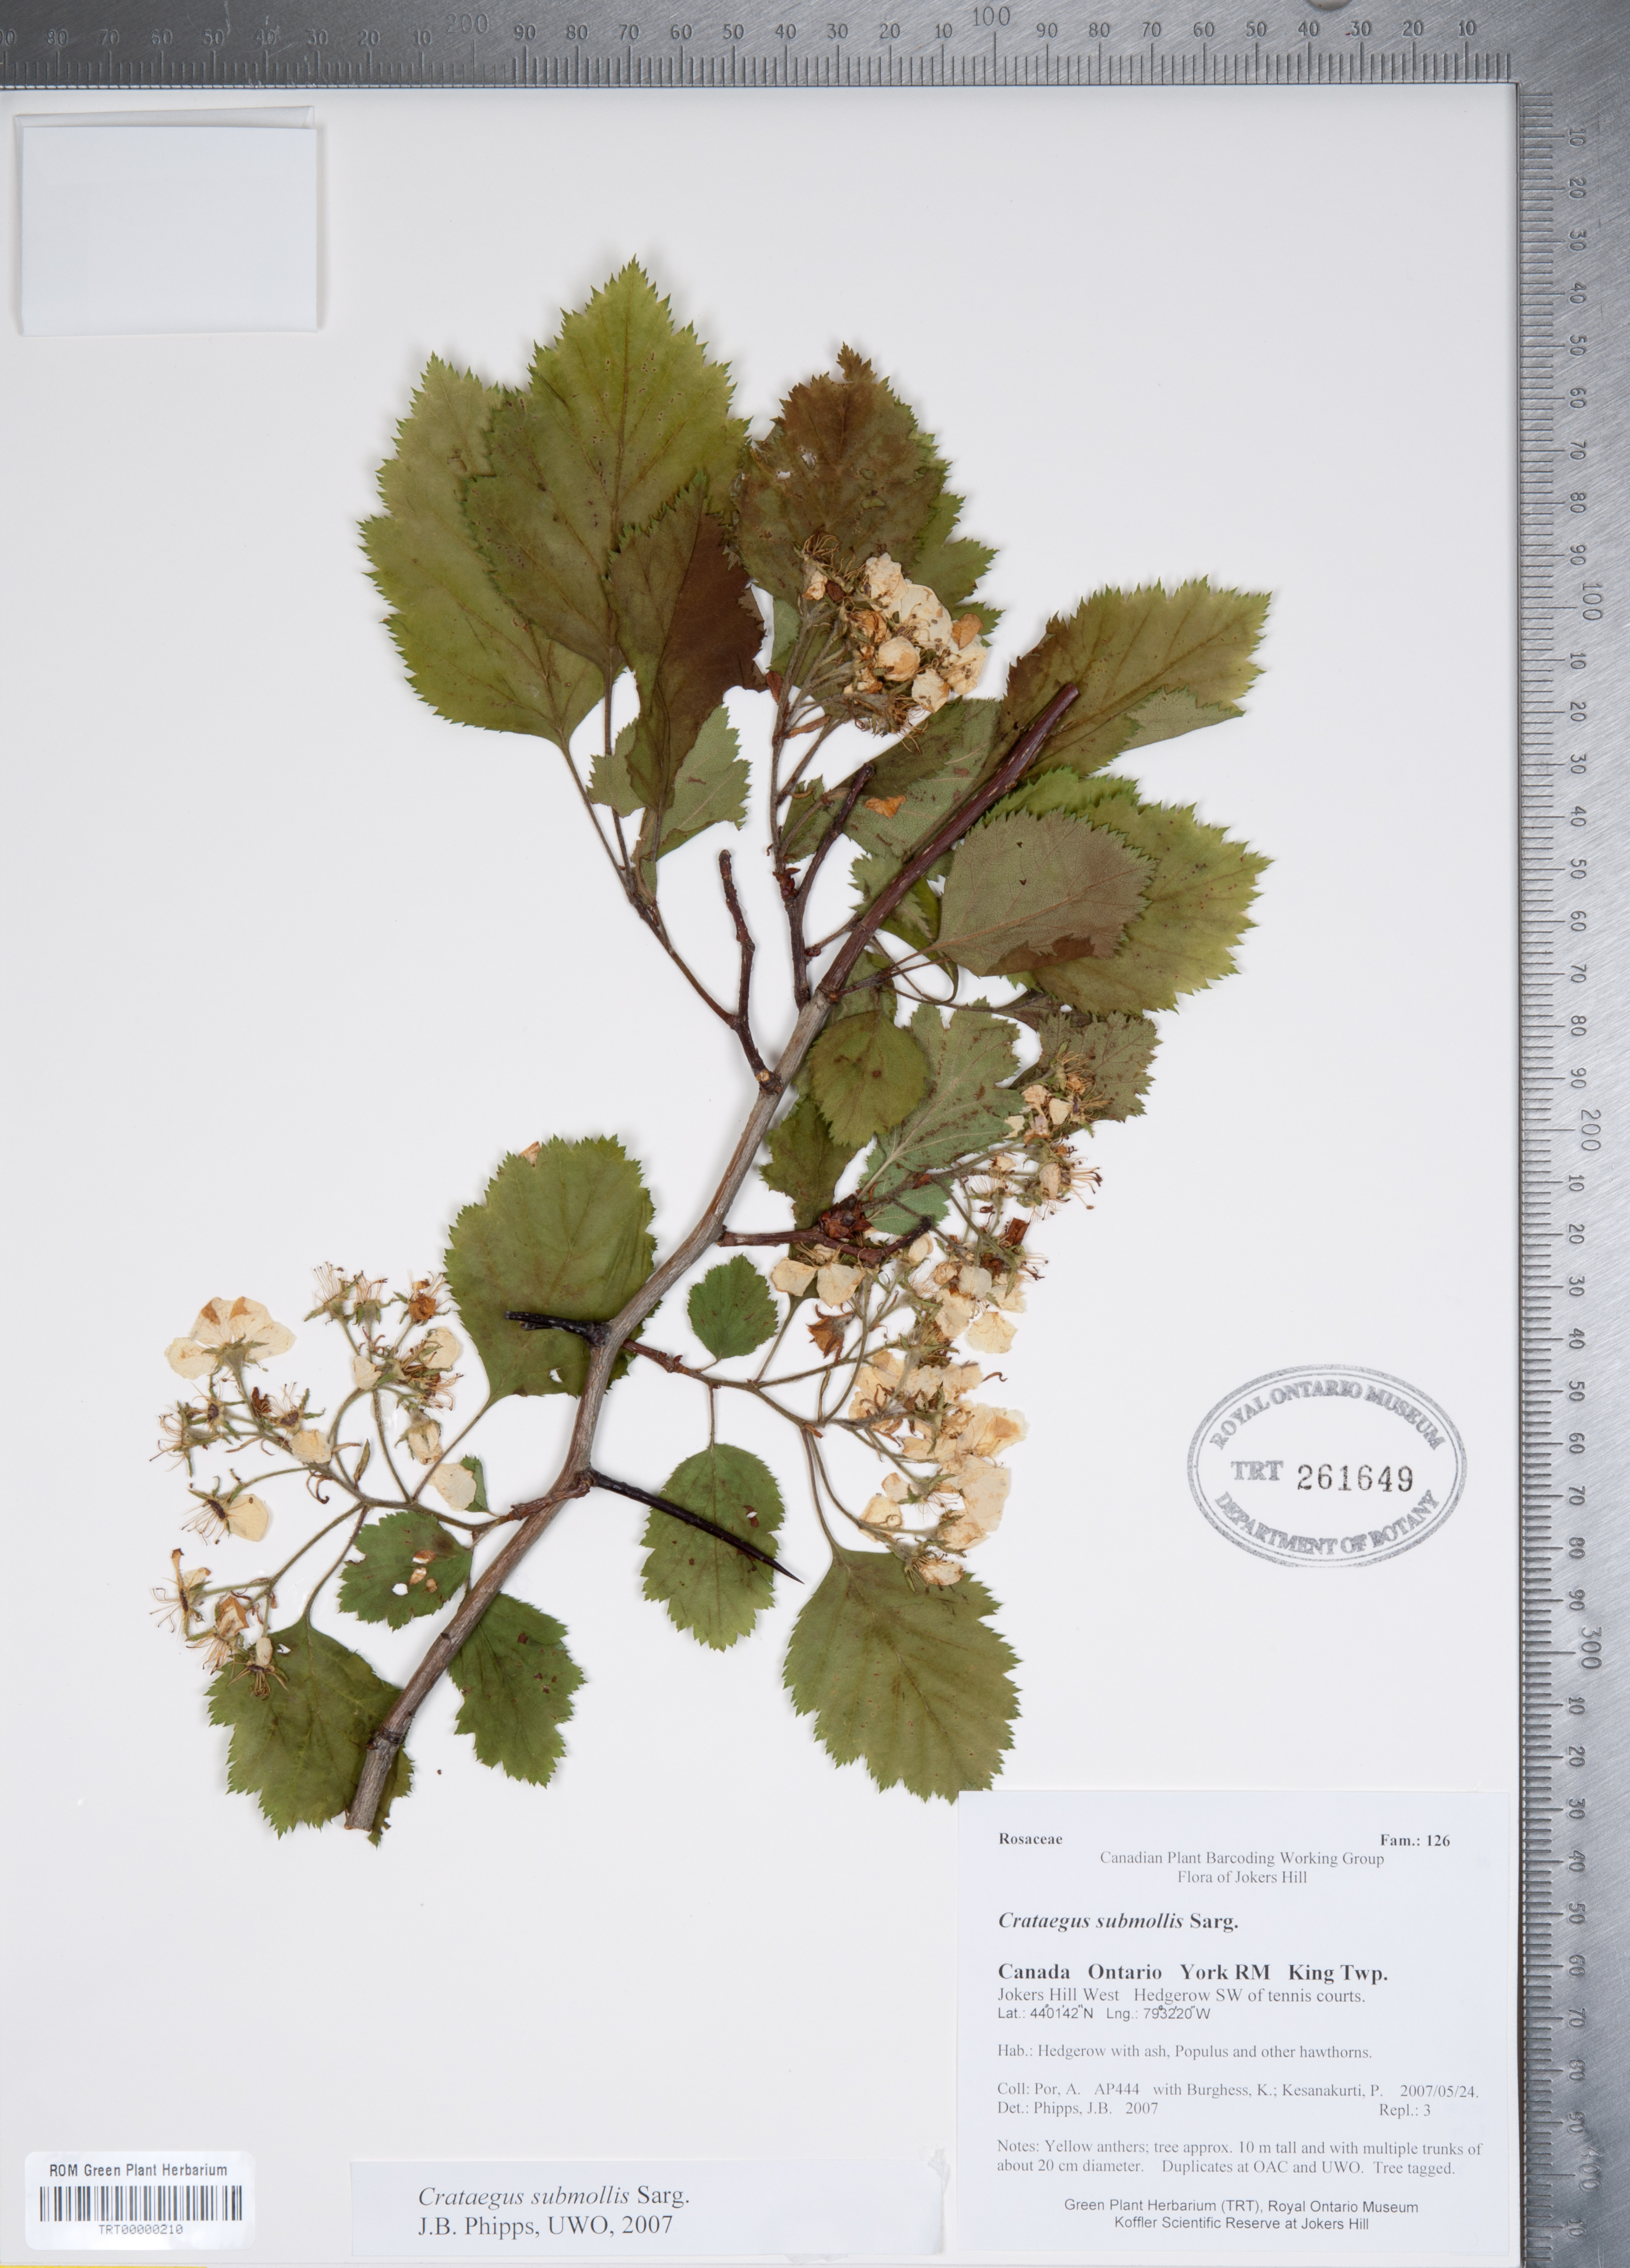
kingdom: Plantae
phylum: Tracheophyta
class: Magnoliopsida
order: Rosales
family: Rosaceae
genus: Crataegus
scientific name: Crataegus submollis
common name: Hairy cockspurthorn
